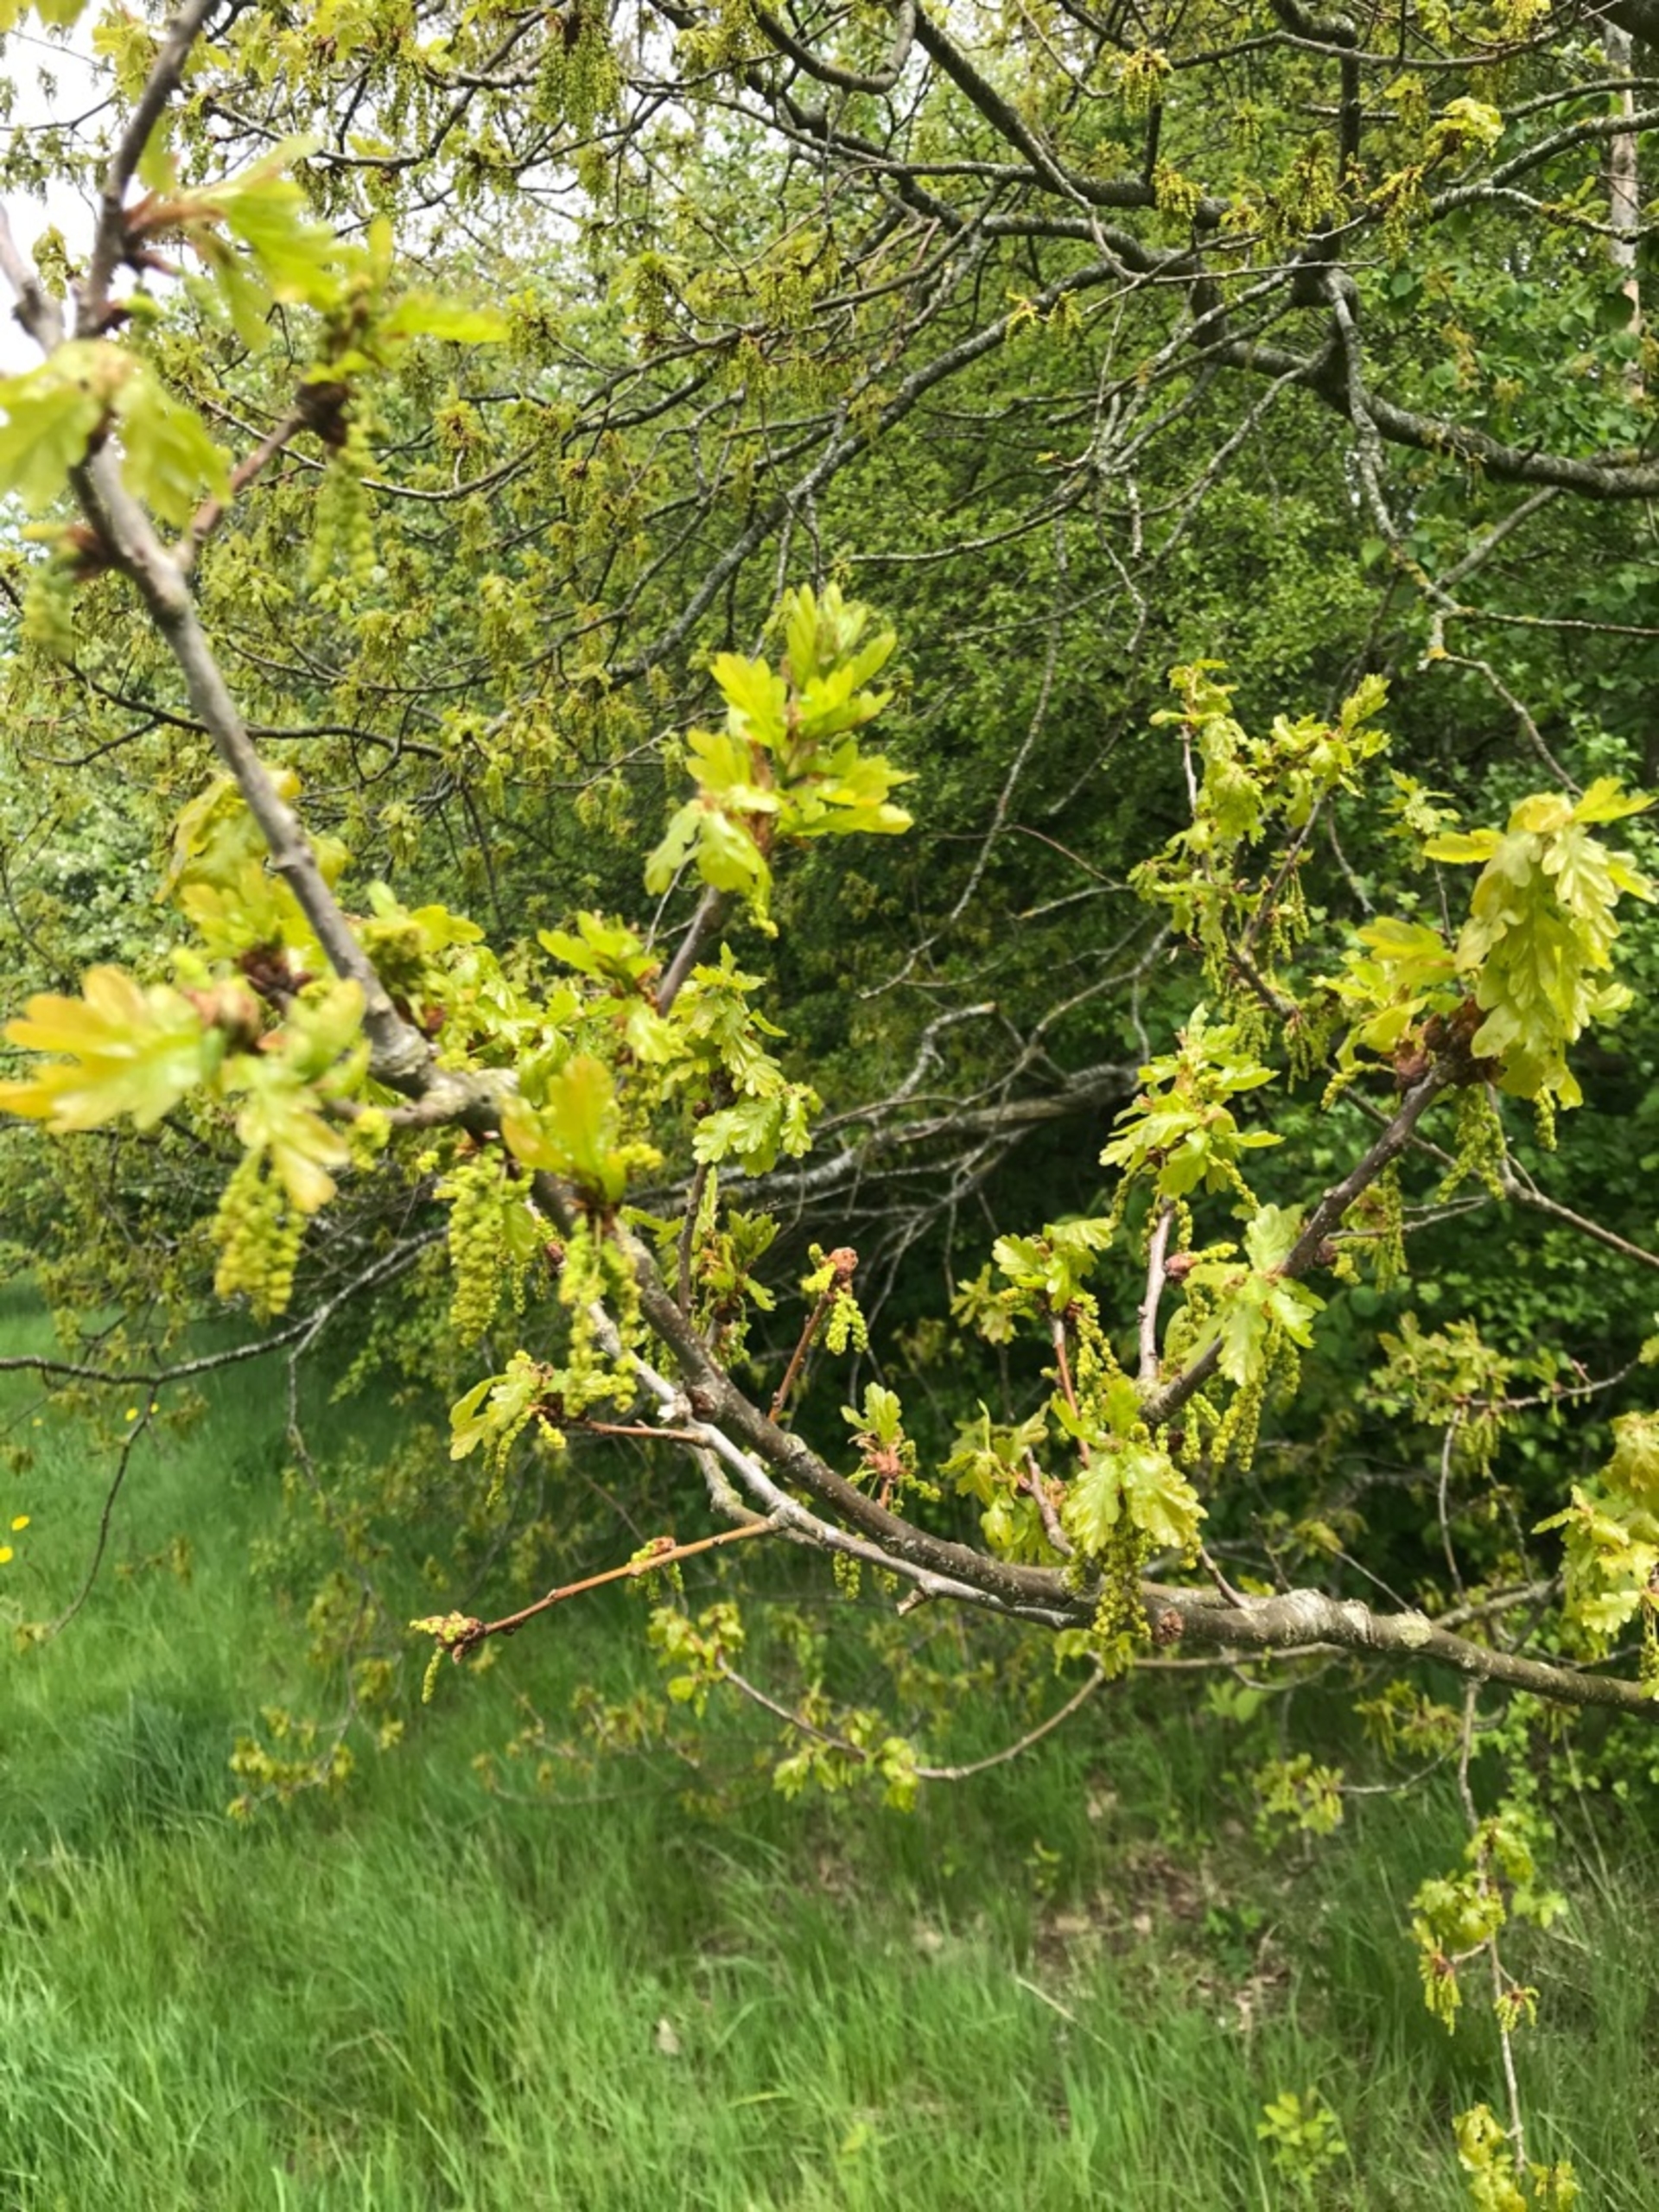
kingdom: Plantae
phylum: Tracheophyta
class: Magnoliopsida
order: Fagales
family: Fagaceae
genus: Quercus
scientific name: Quercus robur
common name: Stilk-eg/almindelig eg
